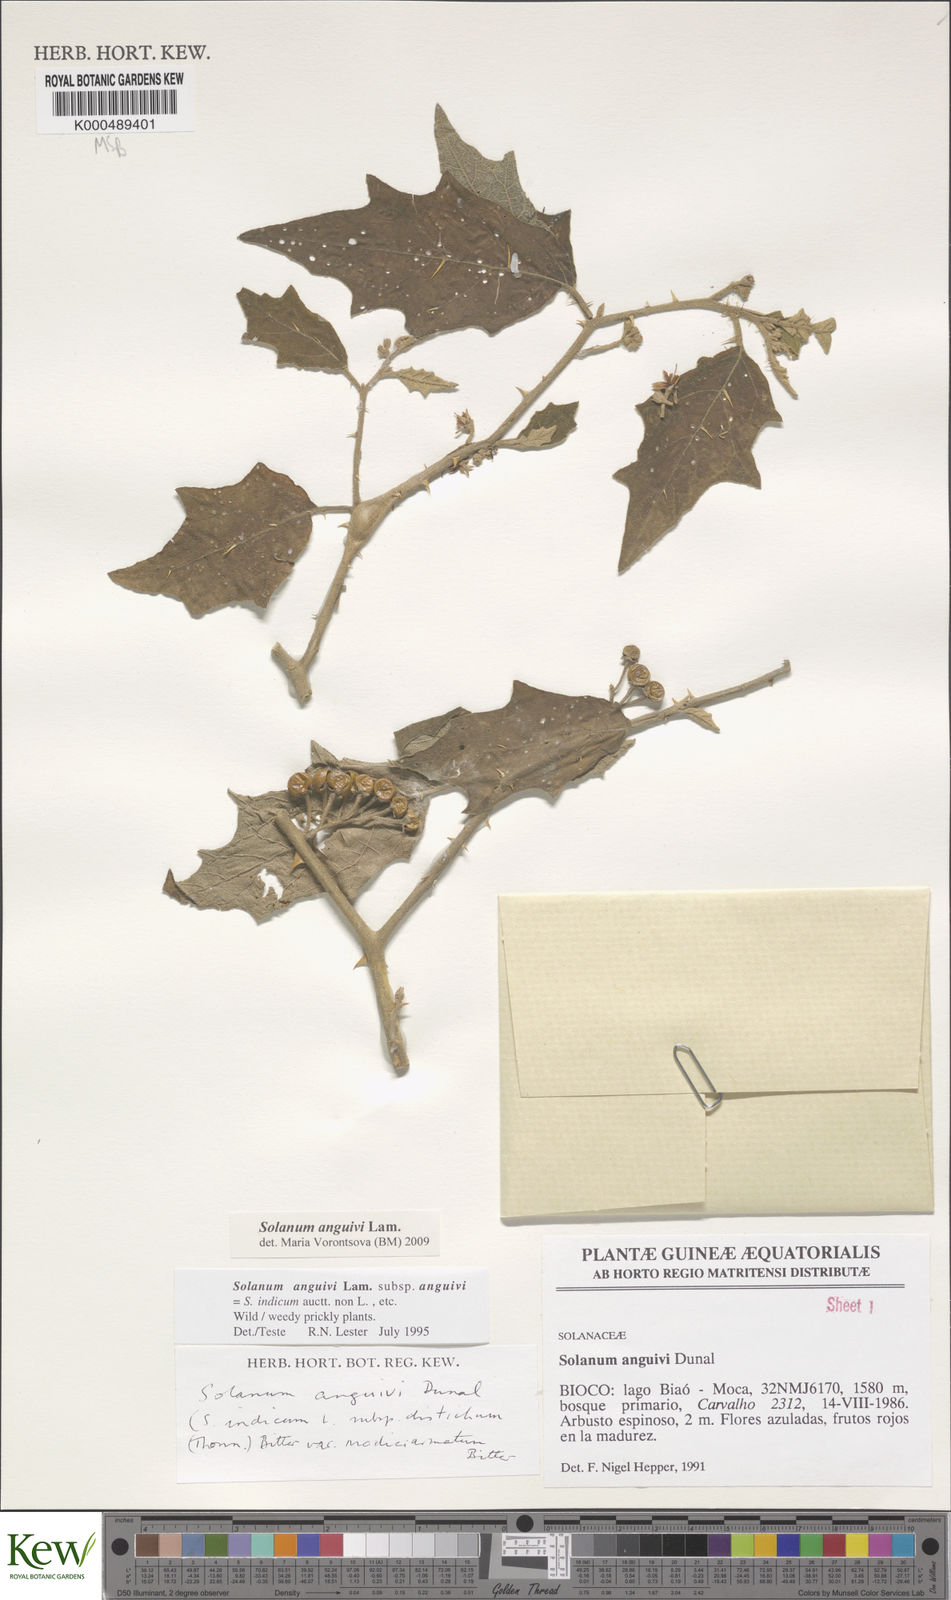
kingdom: Plantae
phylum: Tracheophyta
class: Magnoliopsida
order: Solanales
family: Solanaceae
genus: Solanum
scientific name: Solanum anguivi
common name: Forest bitterberry
